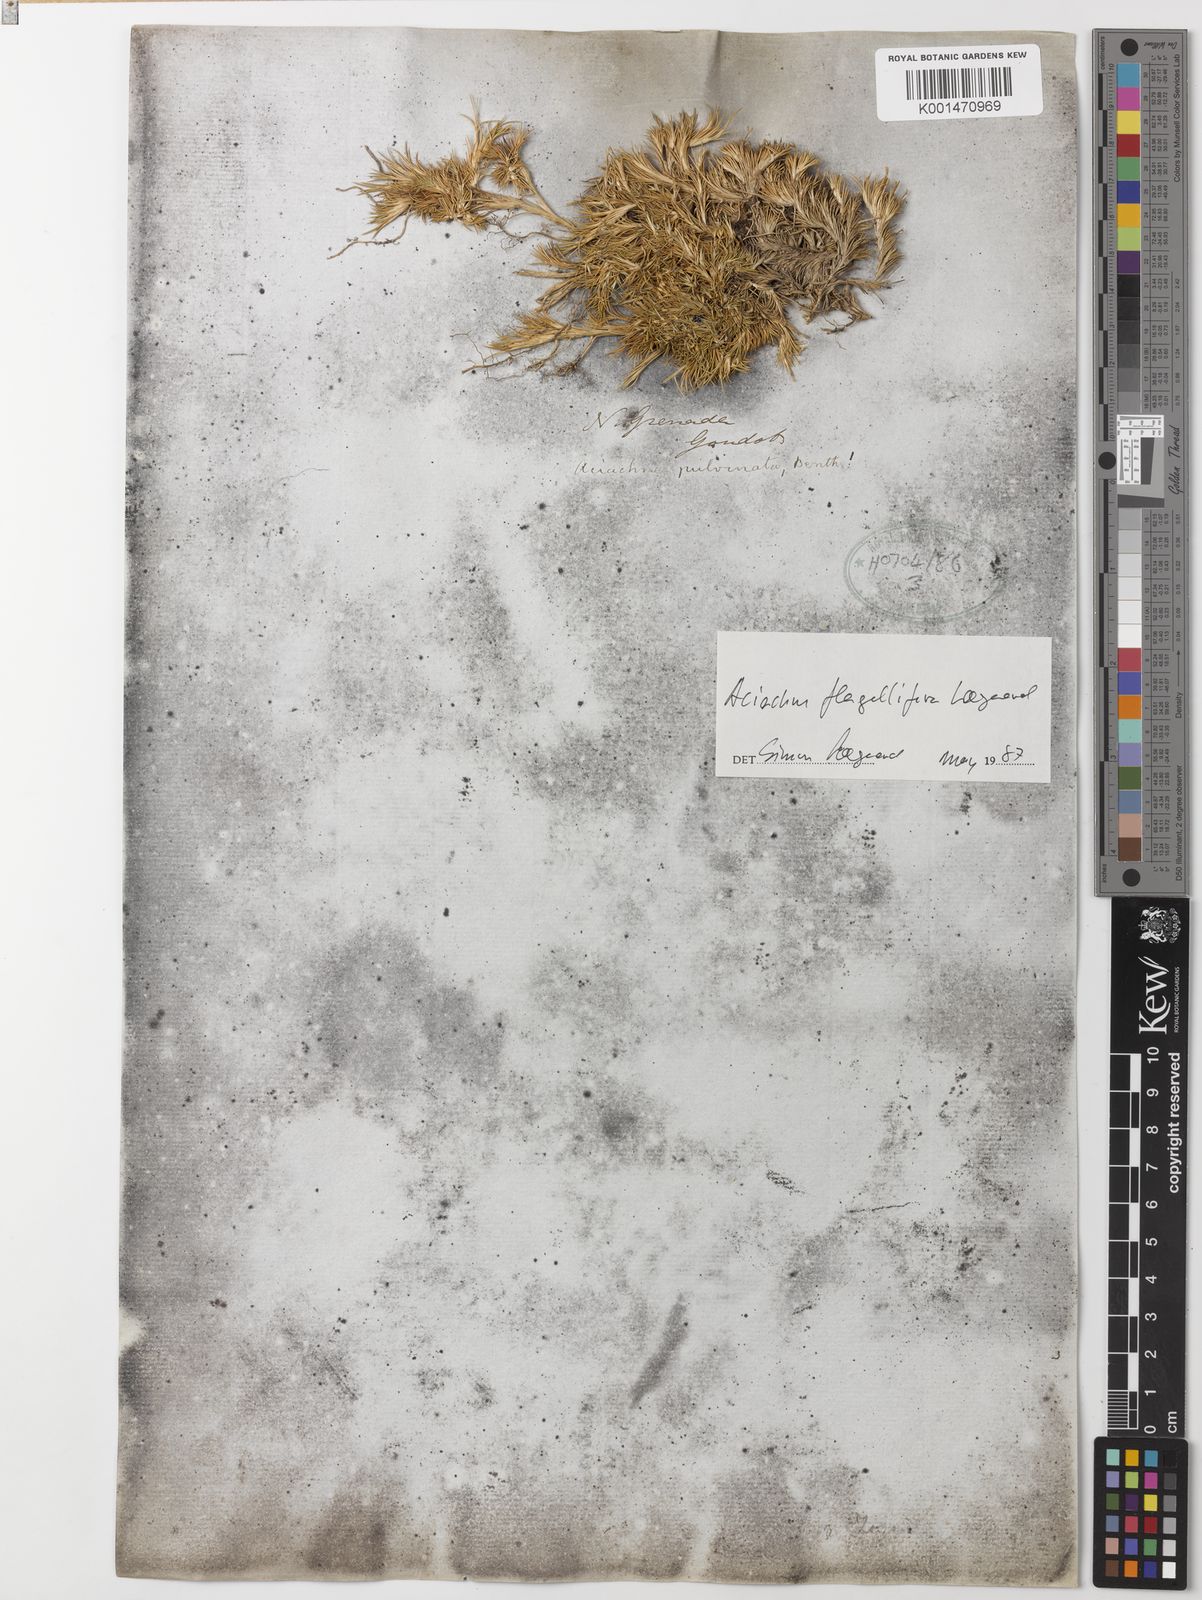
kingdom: Plantae
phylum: Tracheophyta
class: Liliopsida
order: Poales
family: Poaceae
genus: Aciachne
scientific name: Aciachne flagellifera
